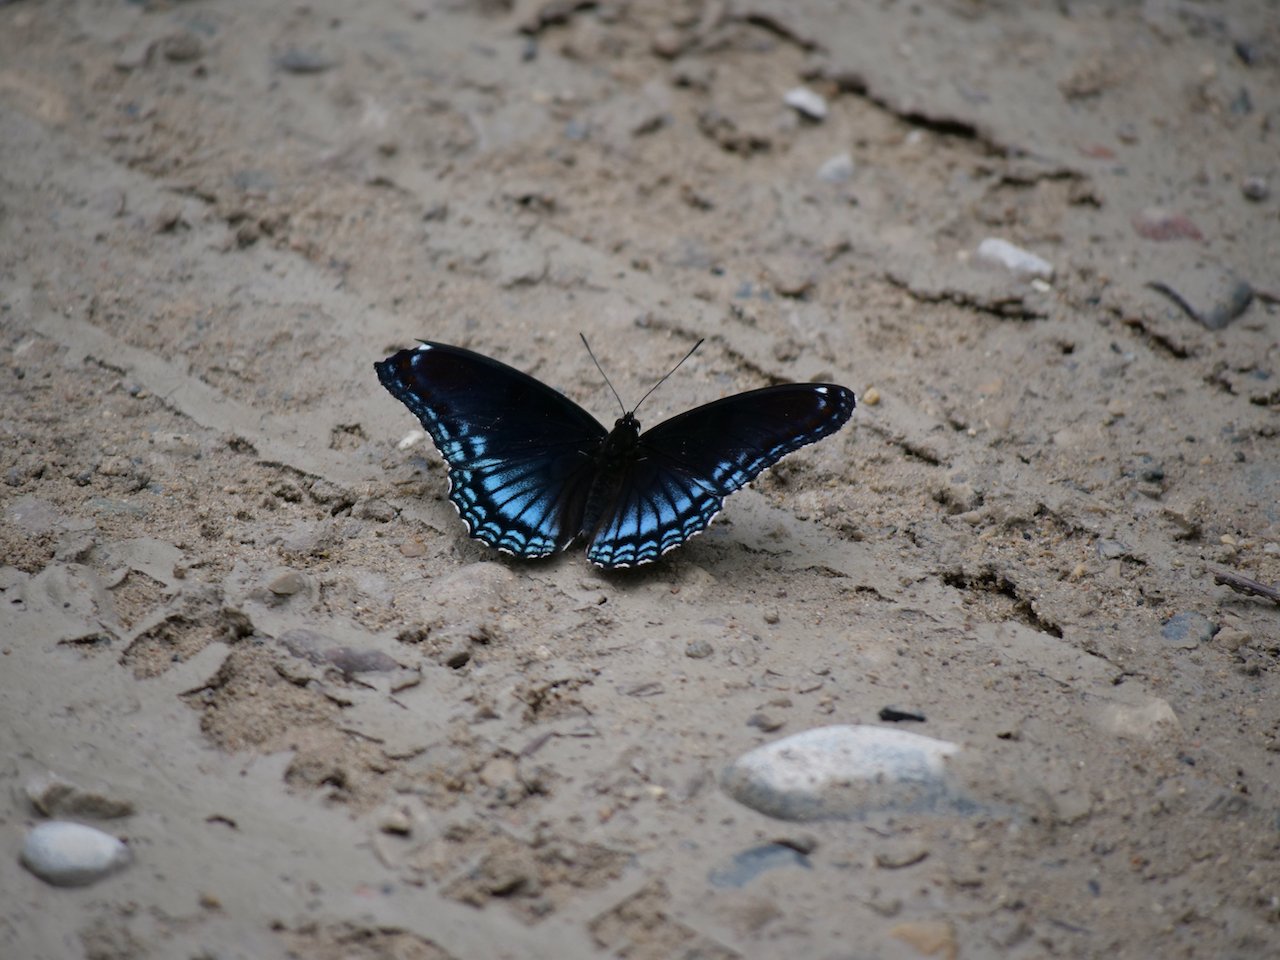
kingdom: Animalia
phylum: Arthropoda
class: Insecta
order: Lepidoptera
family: Nymphalidae
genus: Limenitis
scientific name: Limenitis arthemis
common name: Red-spotted Admiral
